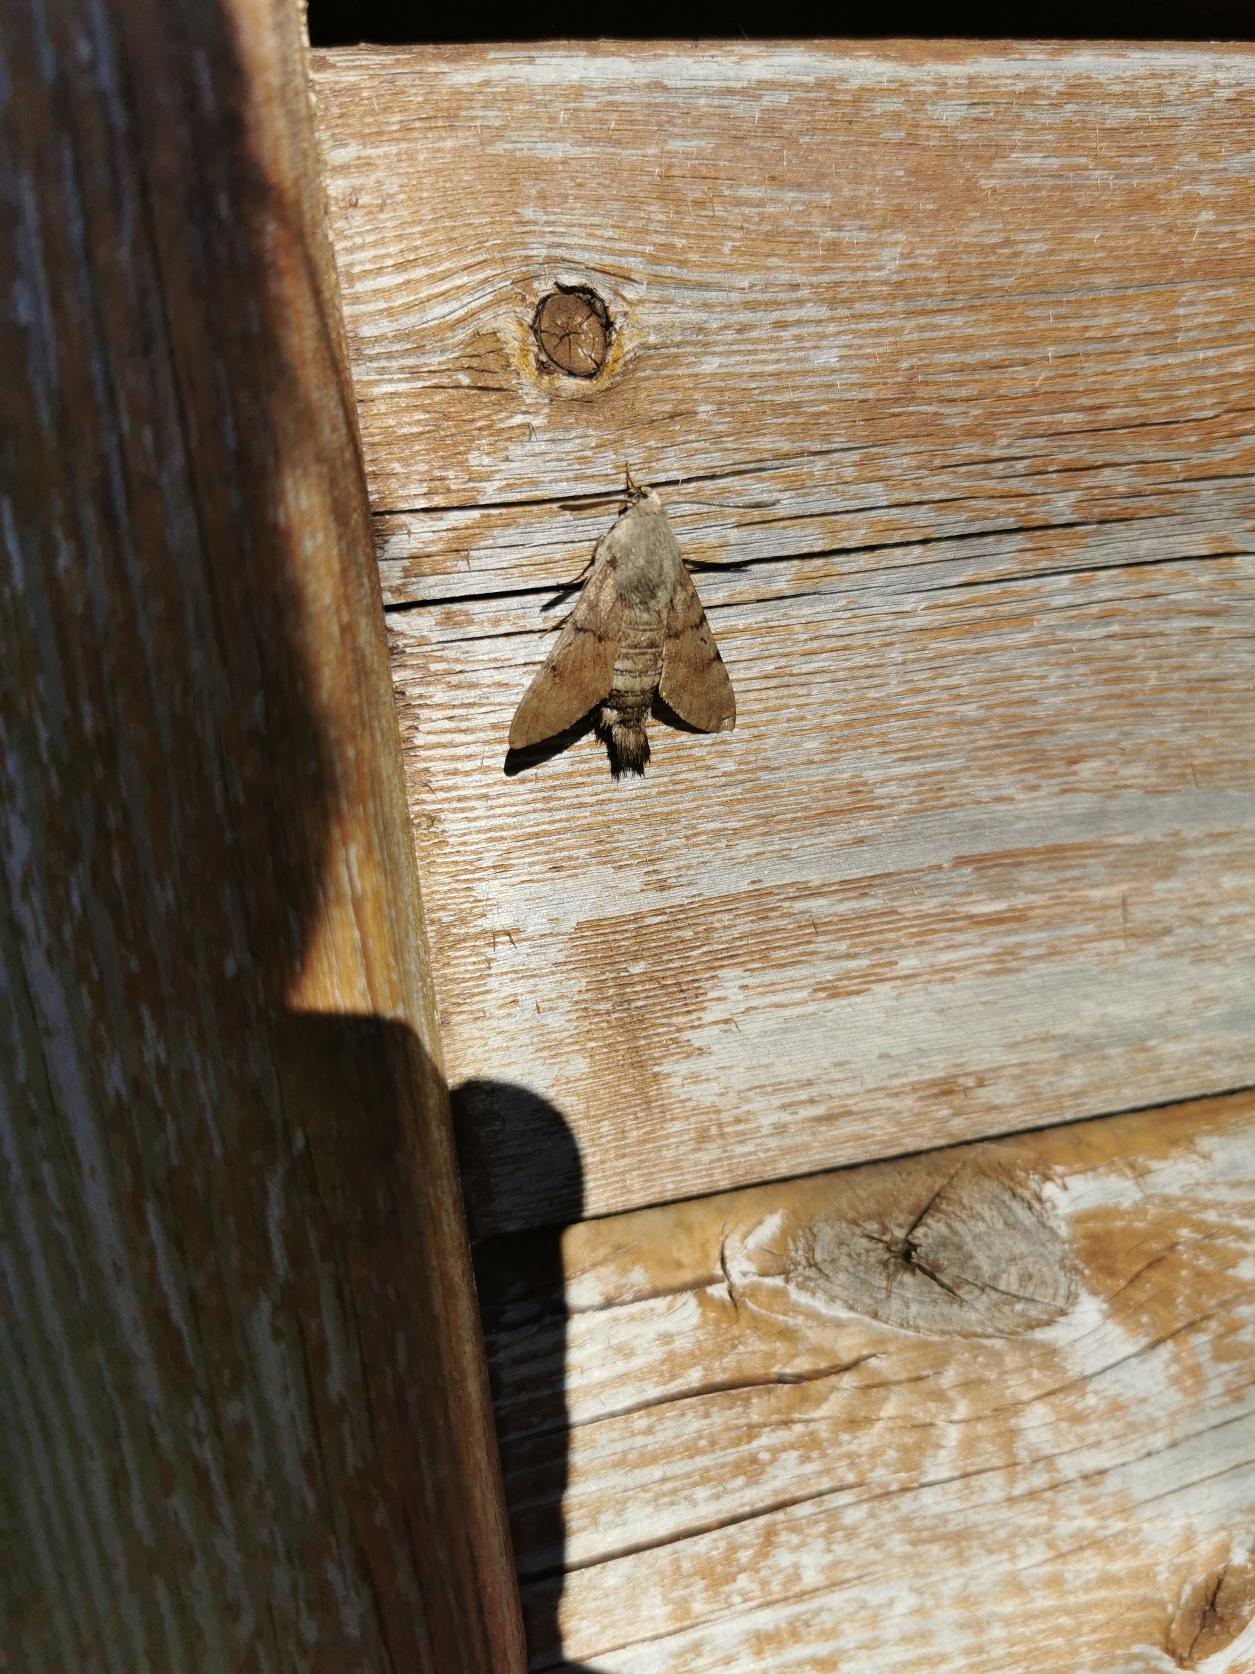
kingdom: Animalia
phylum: Arthropoda
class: Insecta
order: Lepidoptera
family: Sphingidae
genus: Macroglossum
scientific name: Macroglossum stellatarum
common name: Duehale
